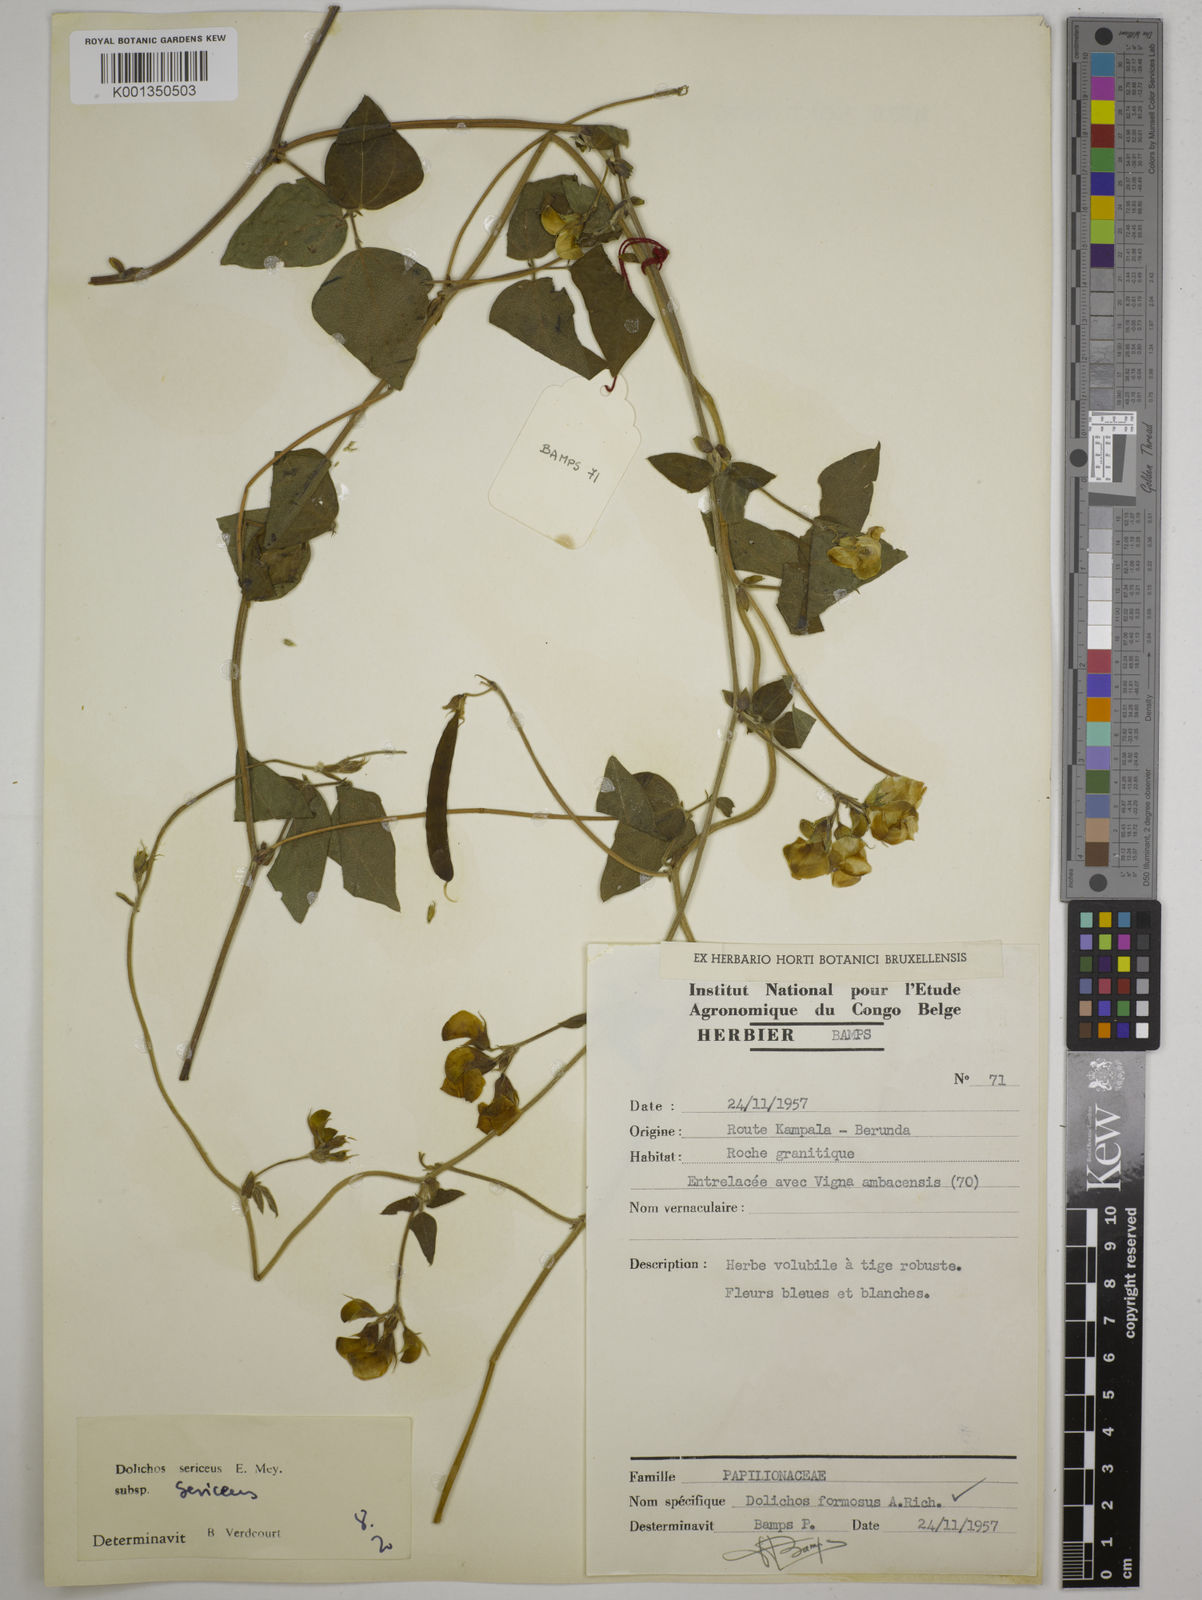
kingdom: Plantae
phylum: Tracheophyta
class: Magnoliopsida
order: Fabales
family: Fabaceae
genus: Dolichos
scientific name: Dolichos sericeus
